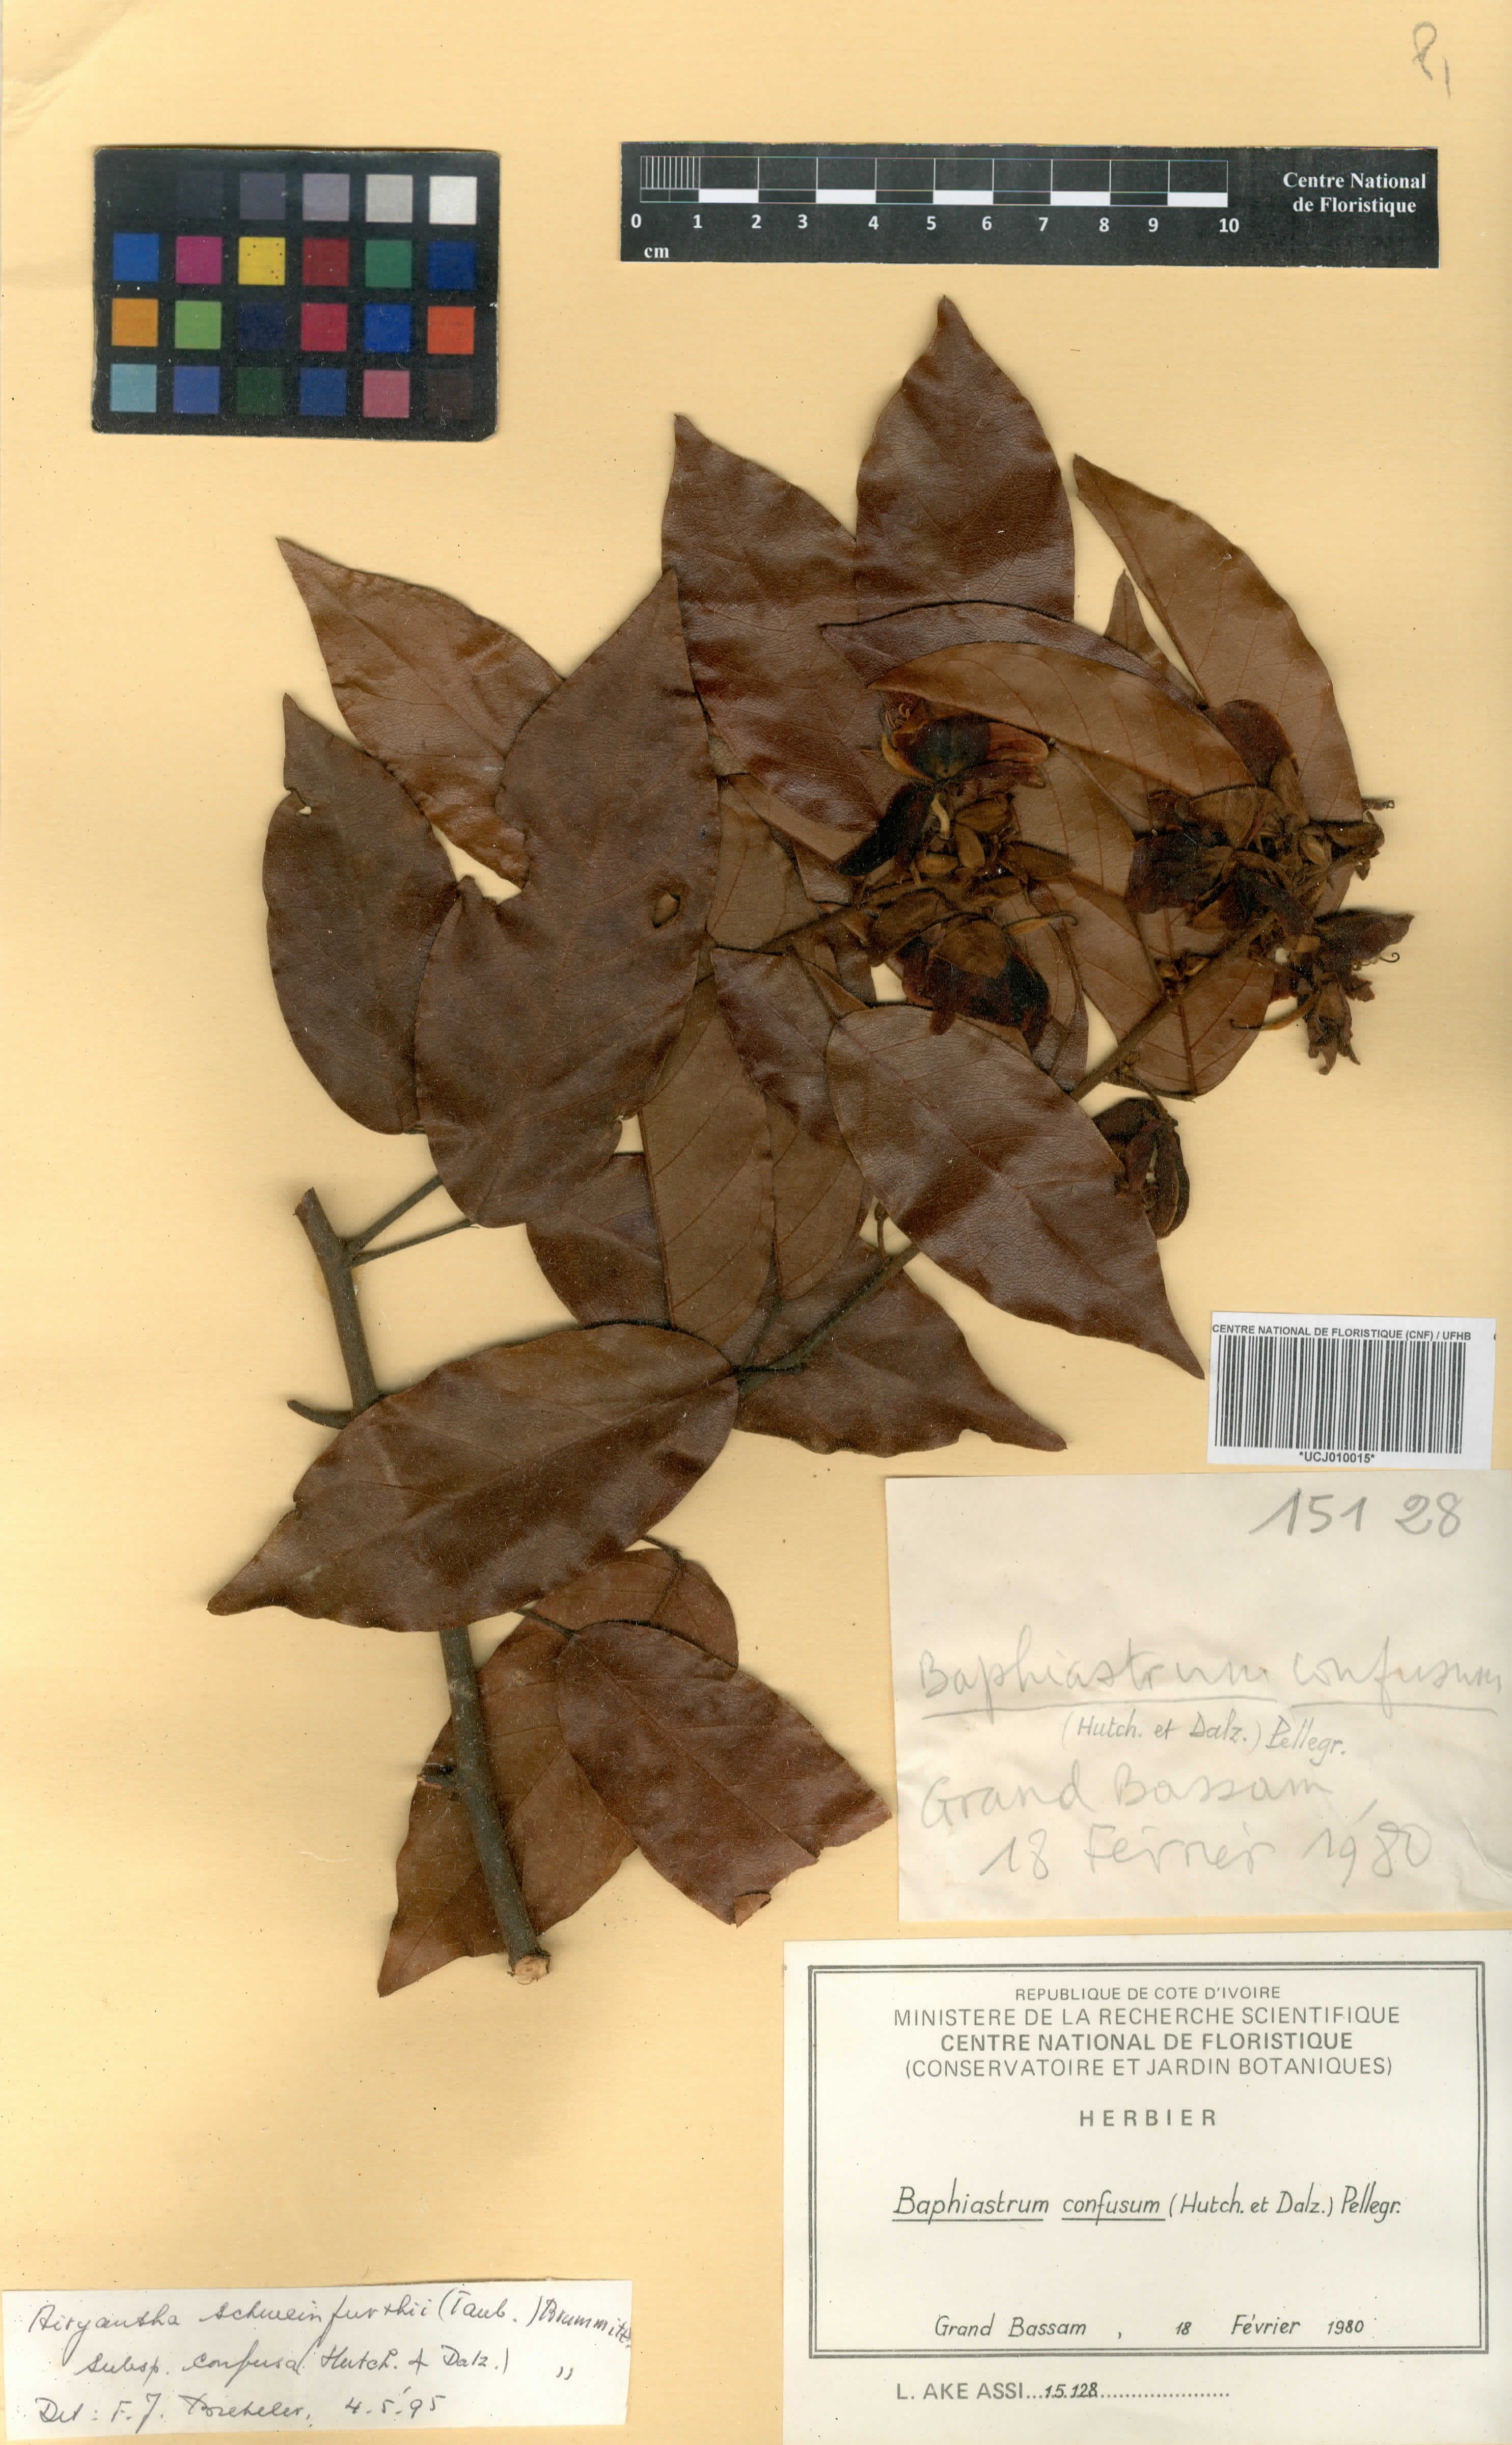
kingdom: Plantae
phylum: Tracheophyta
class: Magnoliopsida
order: Fabales
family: Fabaceae
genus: Airyantha
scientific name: Airyantha schweinfurthii
